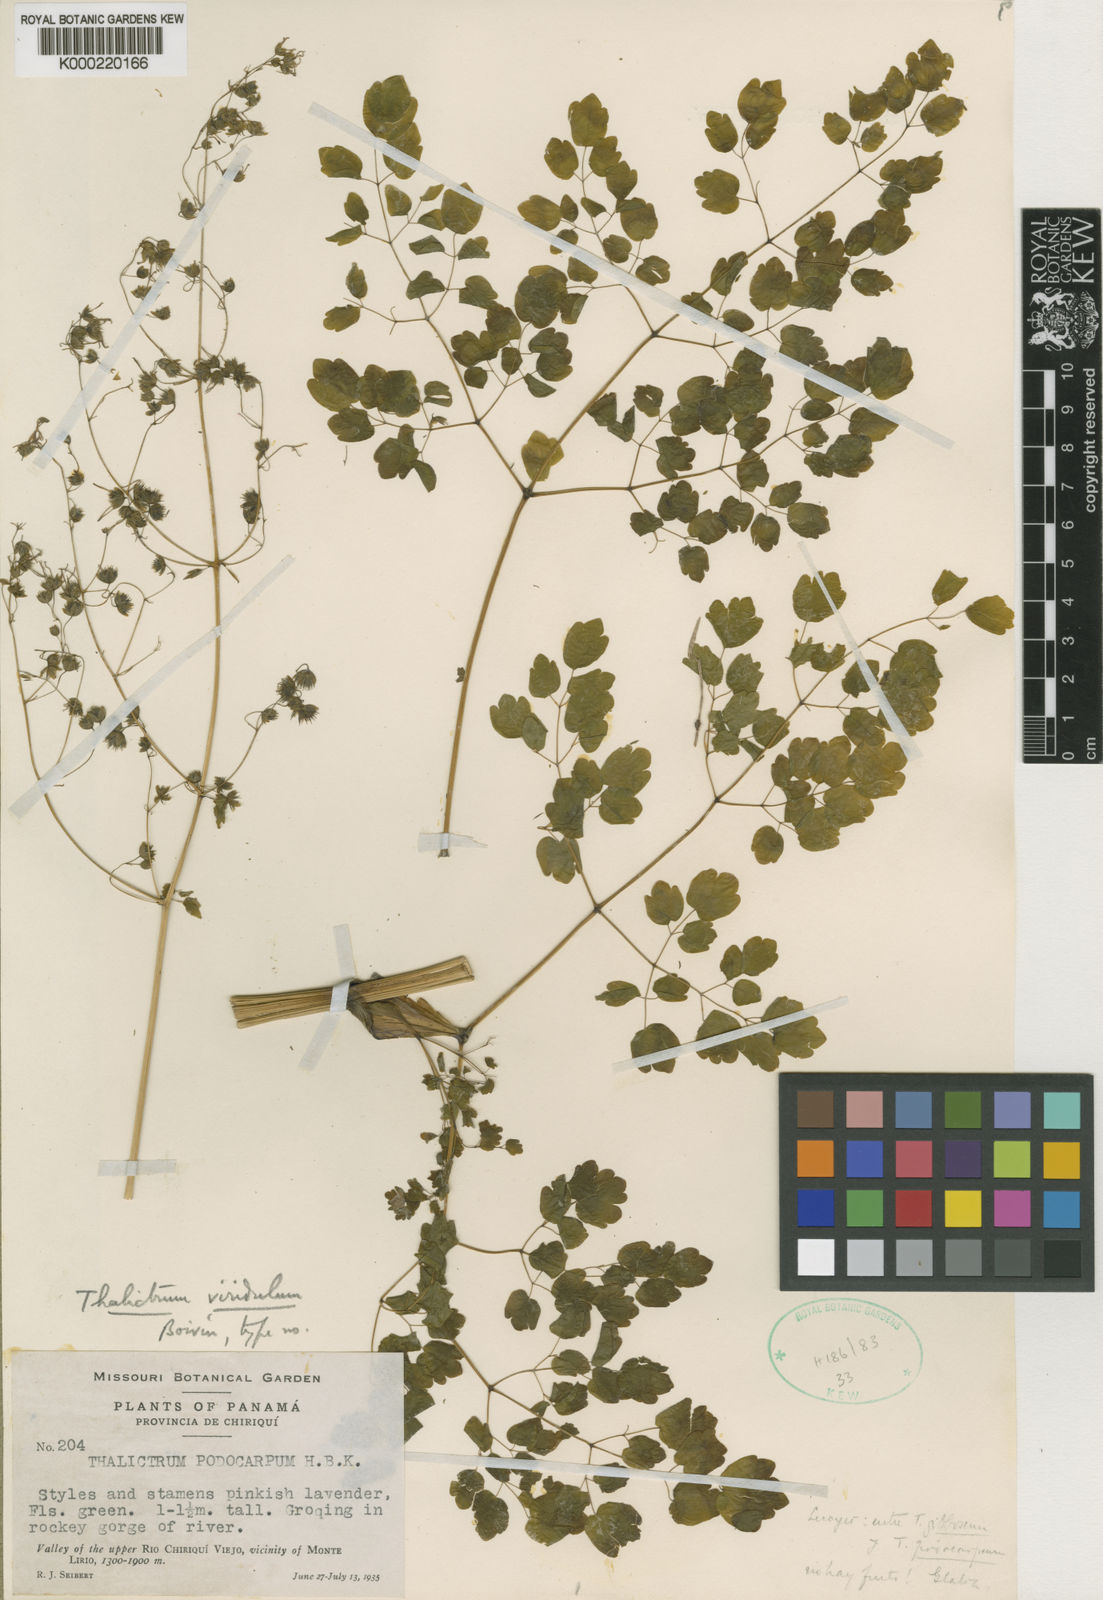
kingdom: Plantae
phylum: Tracheophyta
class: Magnoliopsida
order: Ranunculales
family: Ranunculaceae
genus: Thalictrum
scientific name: Thalictrum panamense
